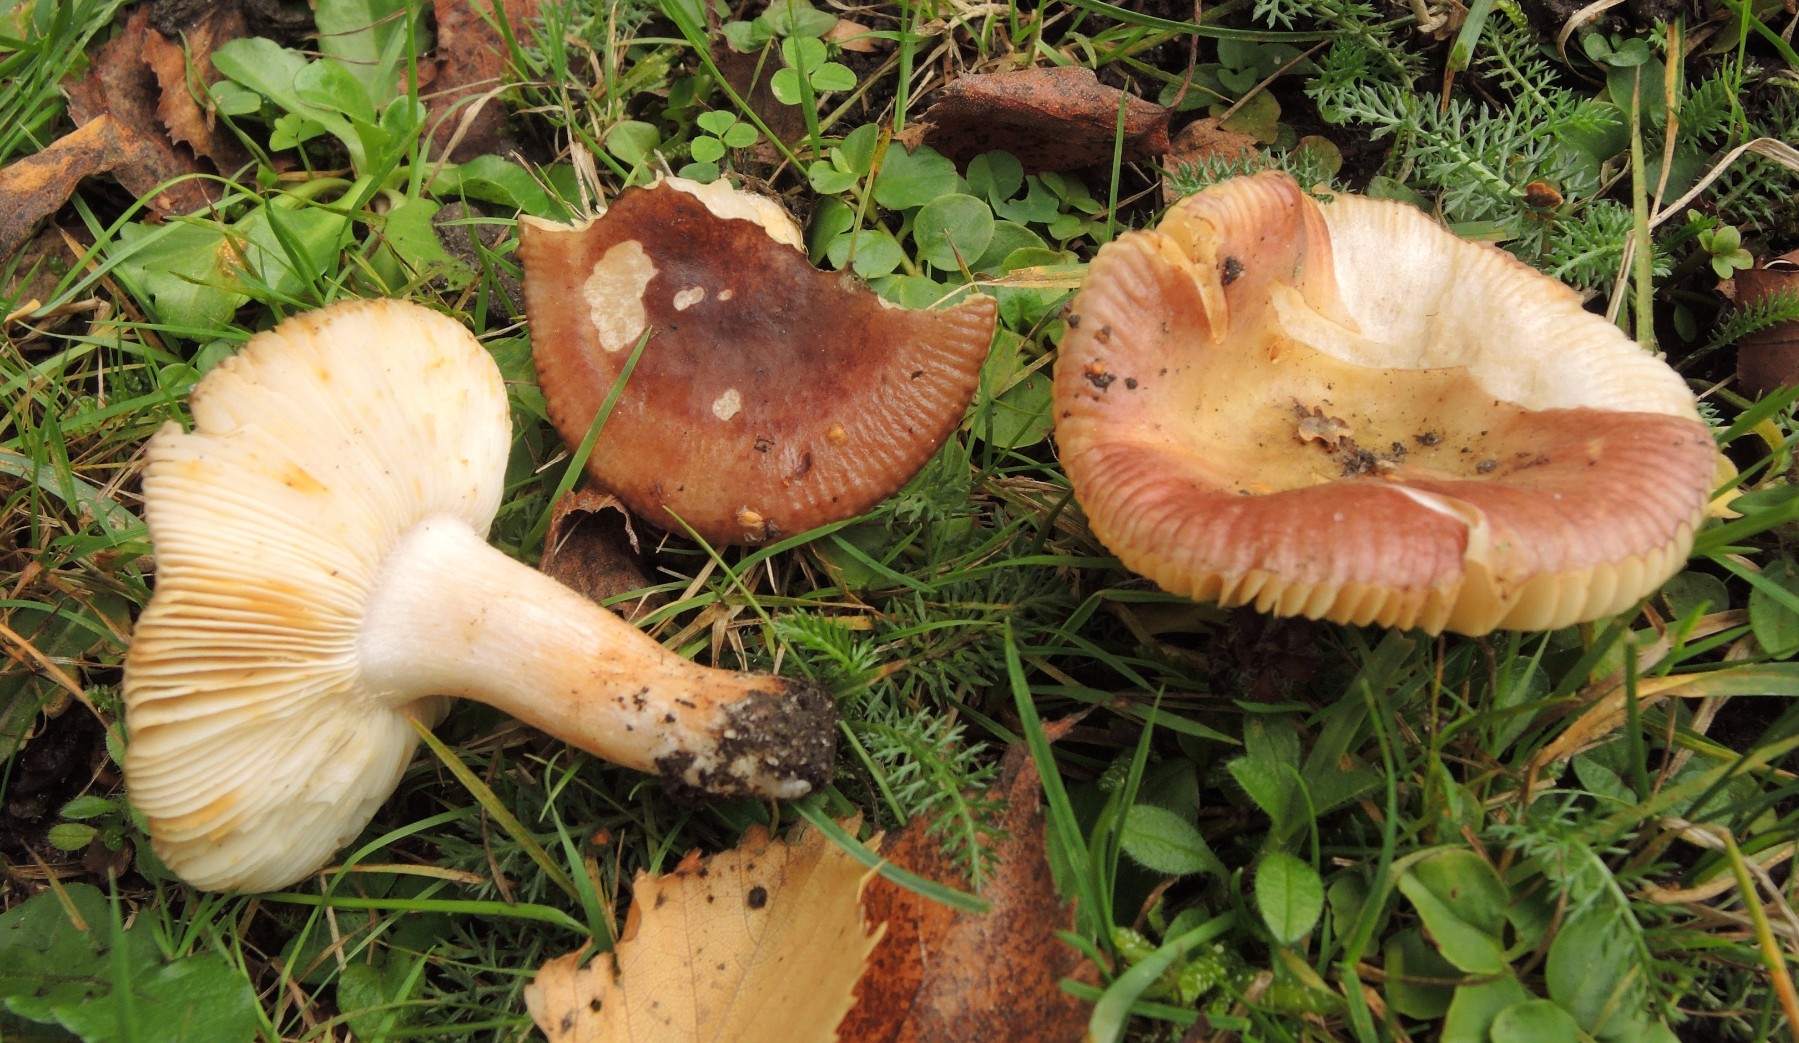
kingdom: Fungi
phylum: Basidiomycota
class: Agaricomycetes
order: Russulales
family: Russulaceae
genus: Russula
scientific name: Russula versicolor
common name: foranderlig skørhat
